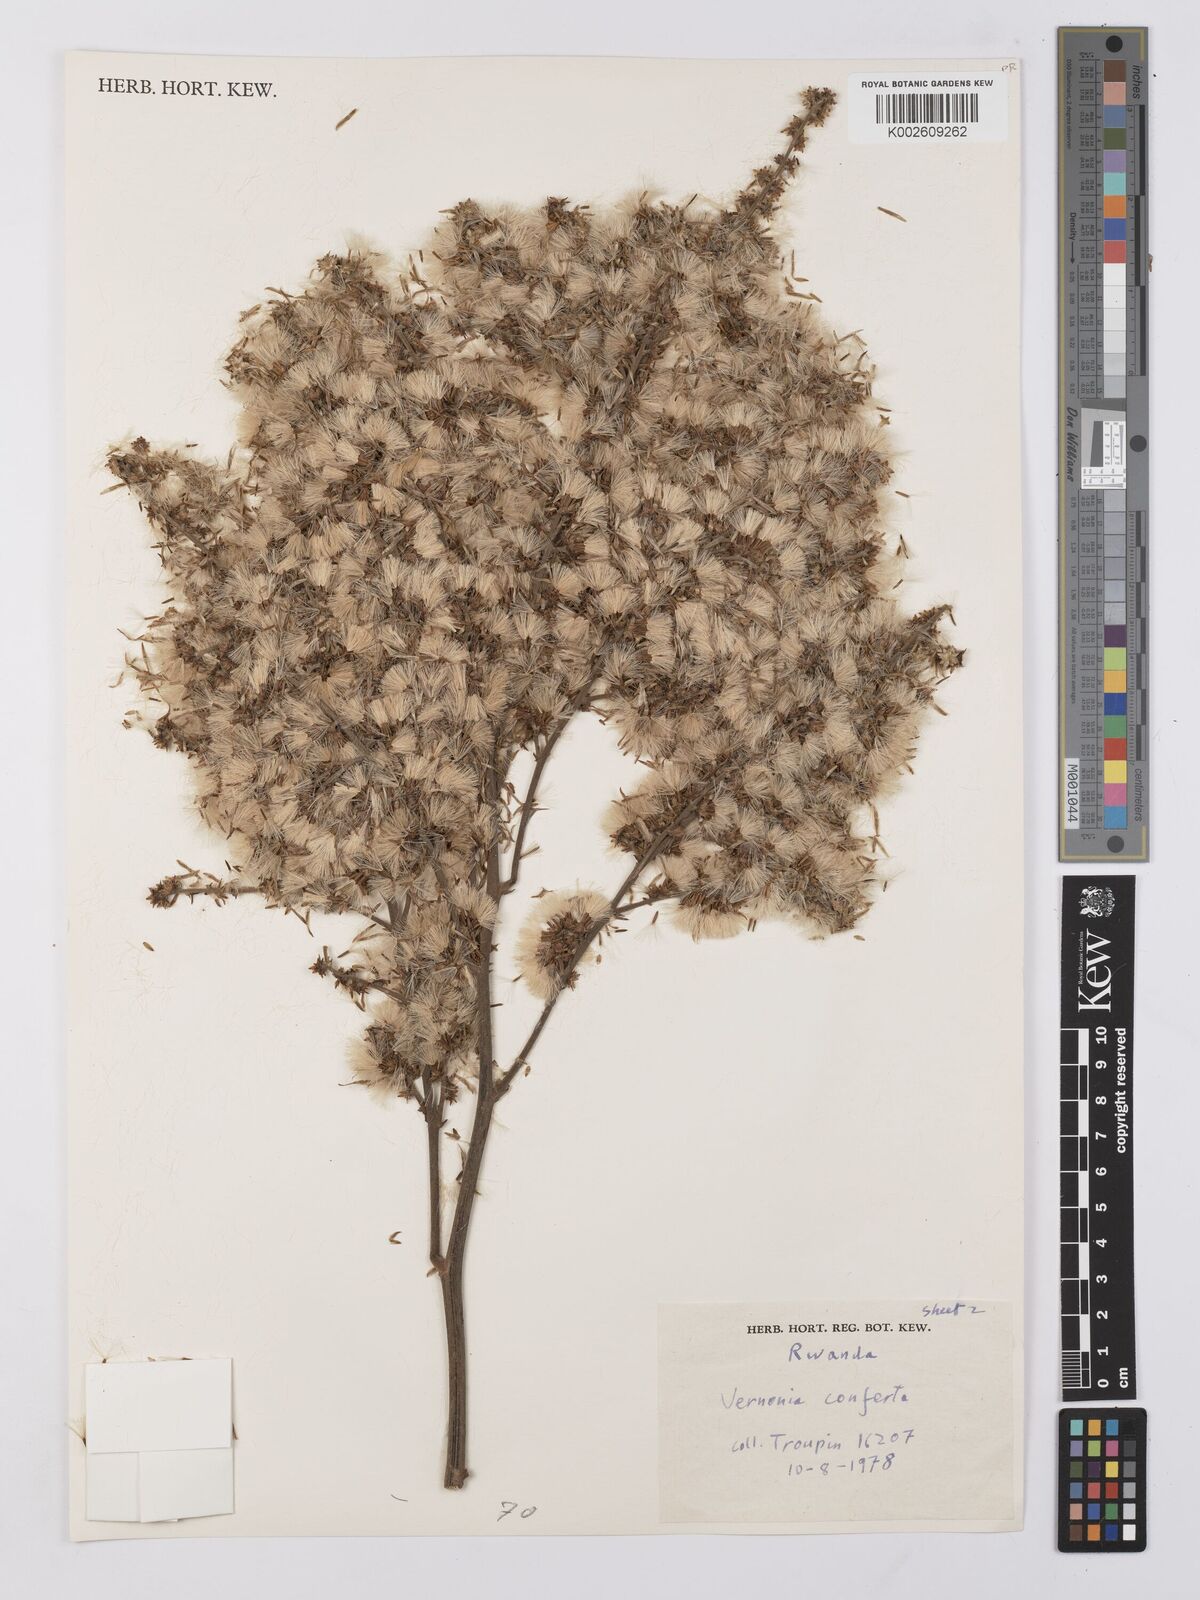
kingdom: Plantae
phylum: Tracheophyta
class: Magnoliopsida
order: Asterales
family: Asteraceae
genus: Monosis
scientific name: Monosis conferta
